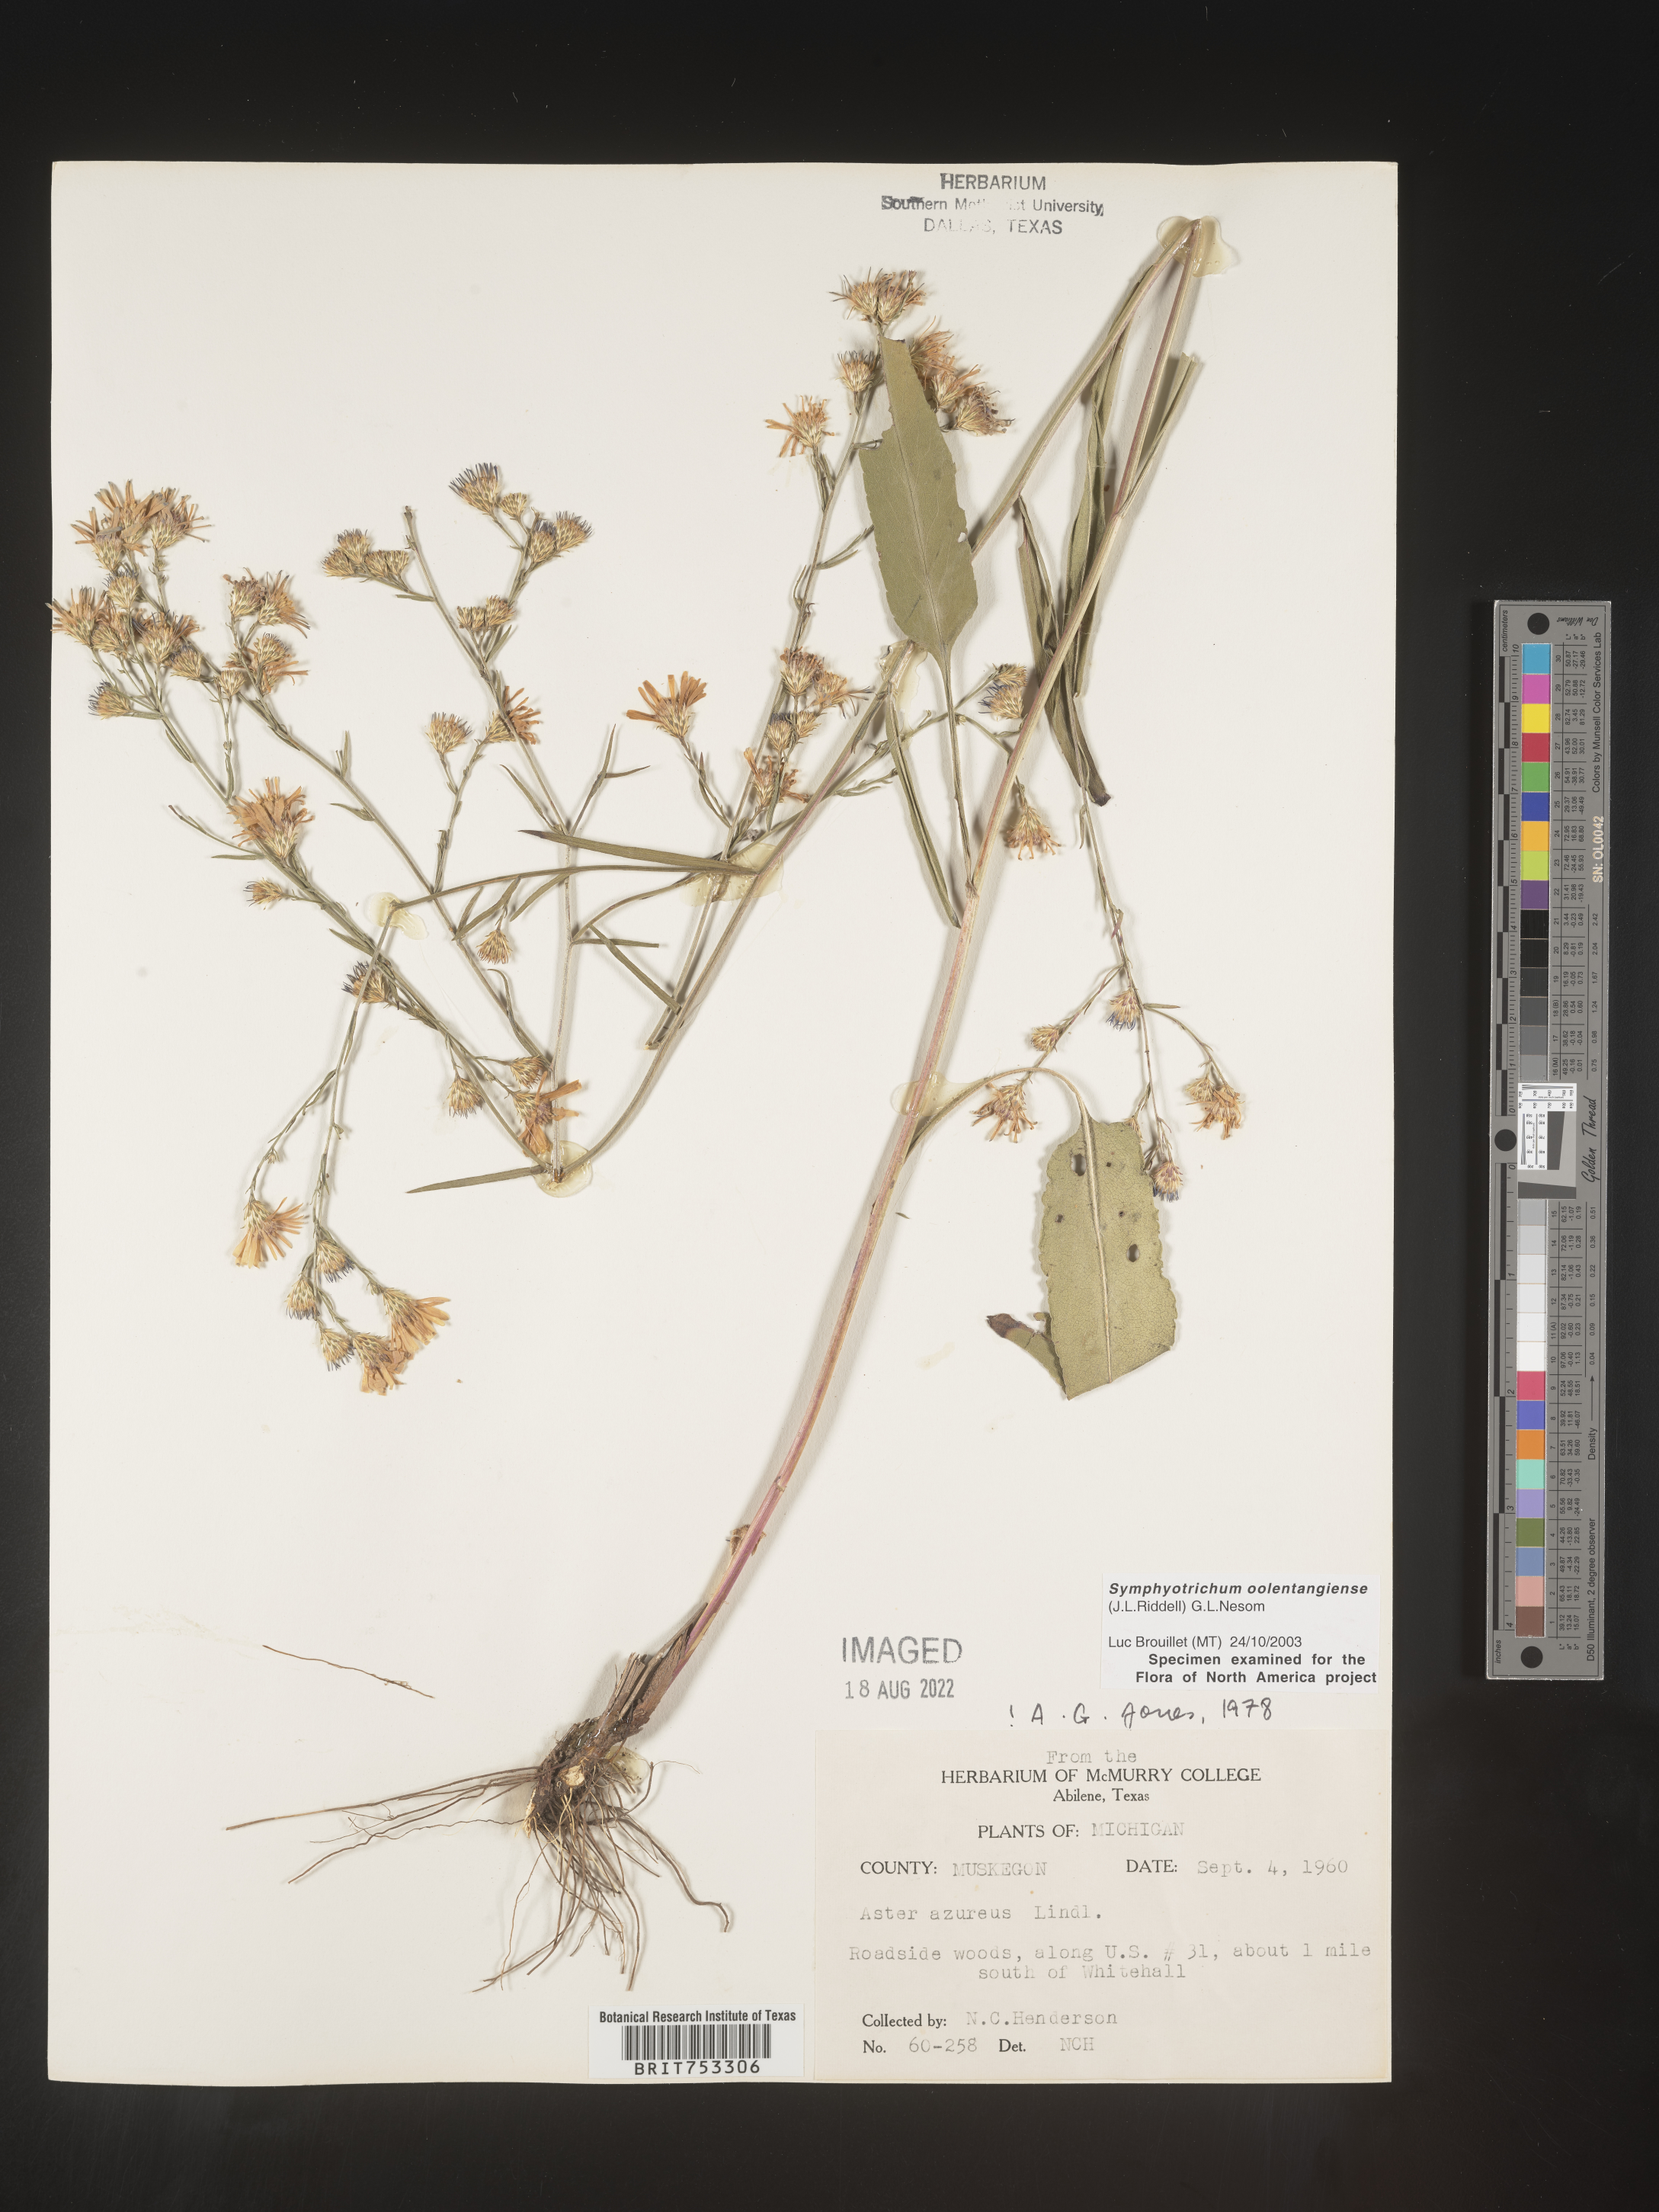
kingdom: Plantae
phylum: Tracheophyta
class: Magnoliopsida
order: Asterales
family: Asteraceae
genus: Symphyotrichum
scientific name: Symphyotrichum oolentangiense
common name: Azure aster
